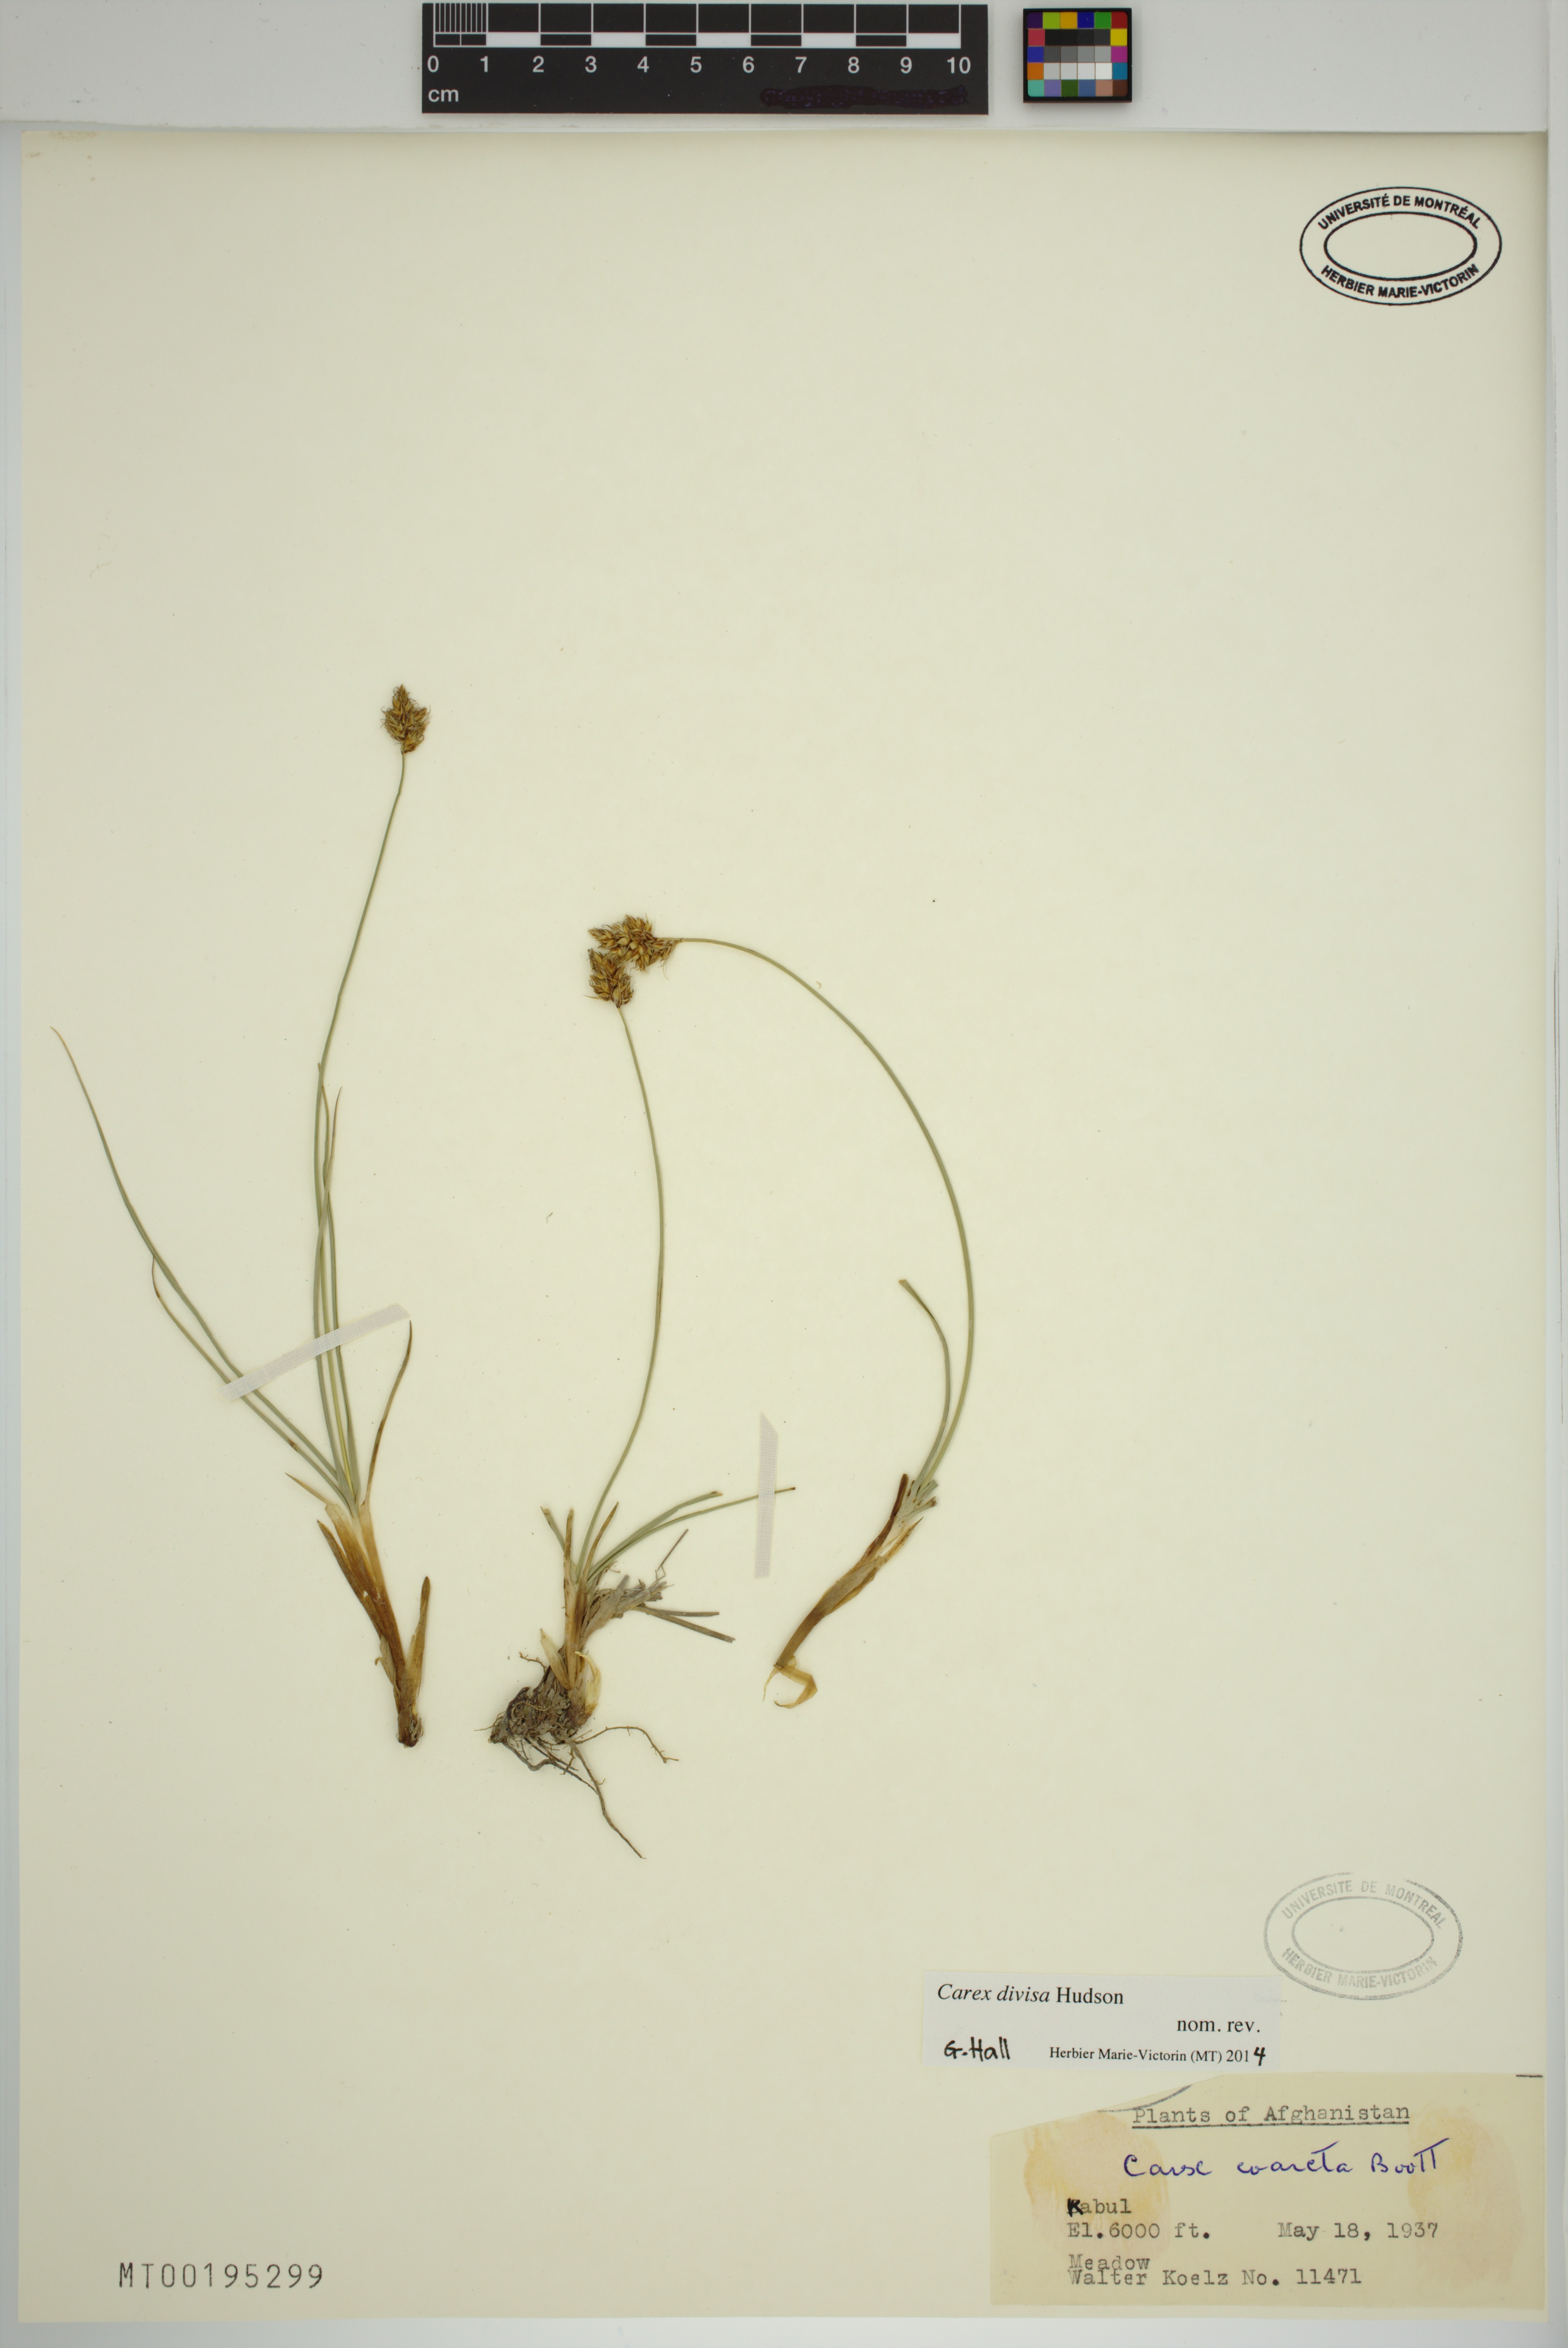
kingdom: Plantae
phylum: Tracheophyta
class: Liliopsida
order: Poales
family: Cyperaceae
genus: Carex
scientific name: Carex divisa
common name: Divided sedge
